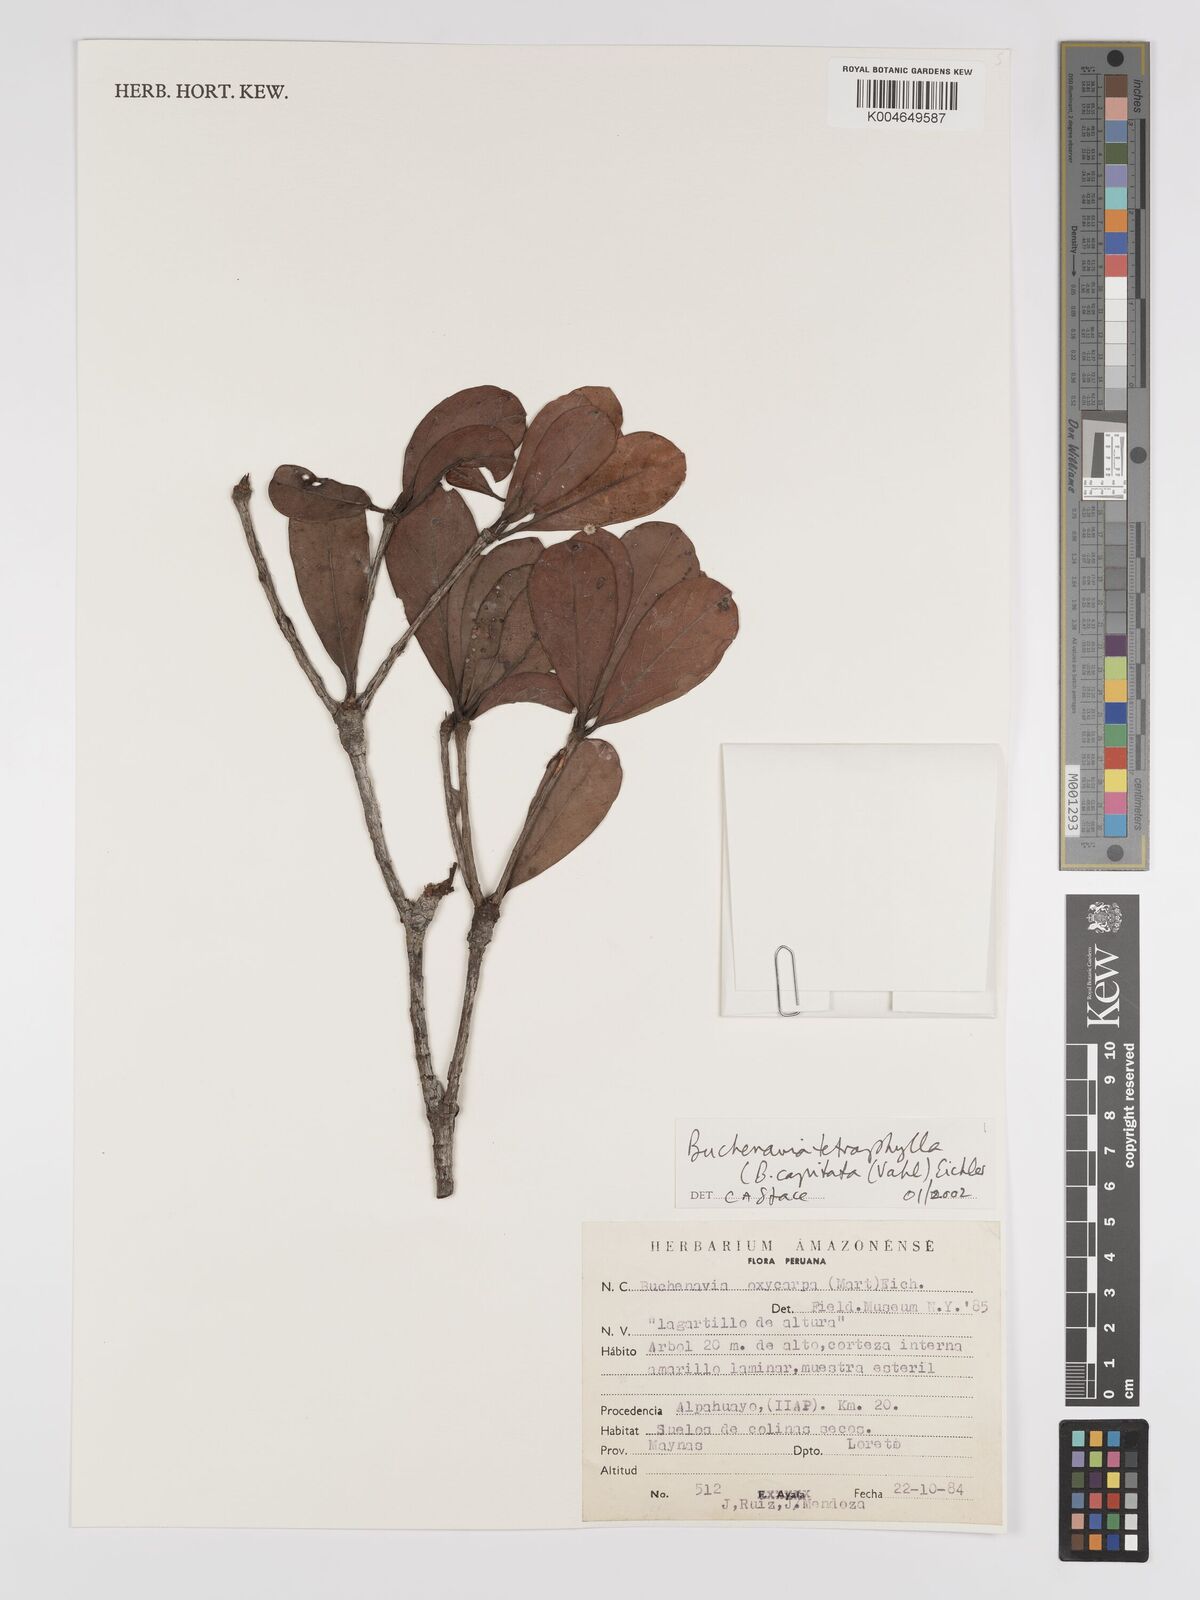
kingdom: Plantae
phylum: Tracheophyta
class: Magnoliopsida
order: Myrtales
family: Combretaceae
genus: Terminalia
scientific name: Terminalia tetraphylla
